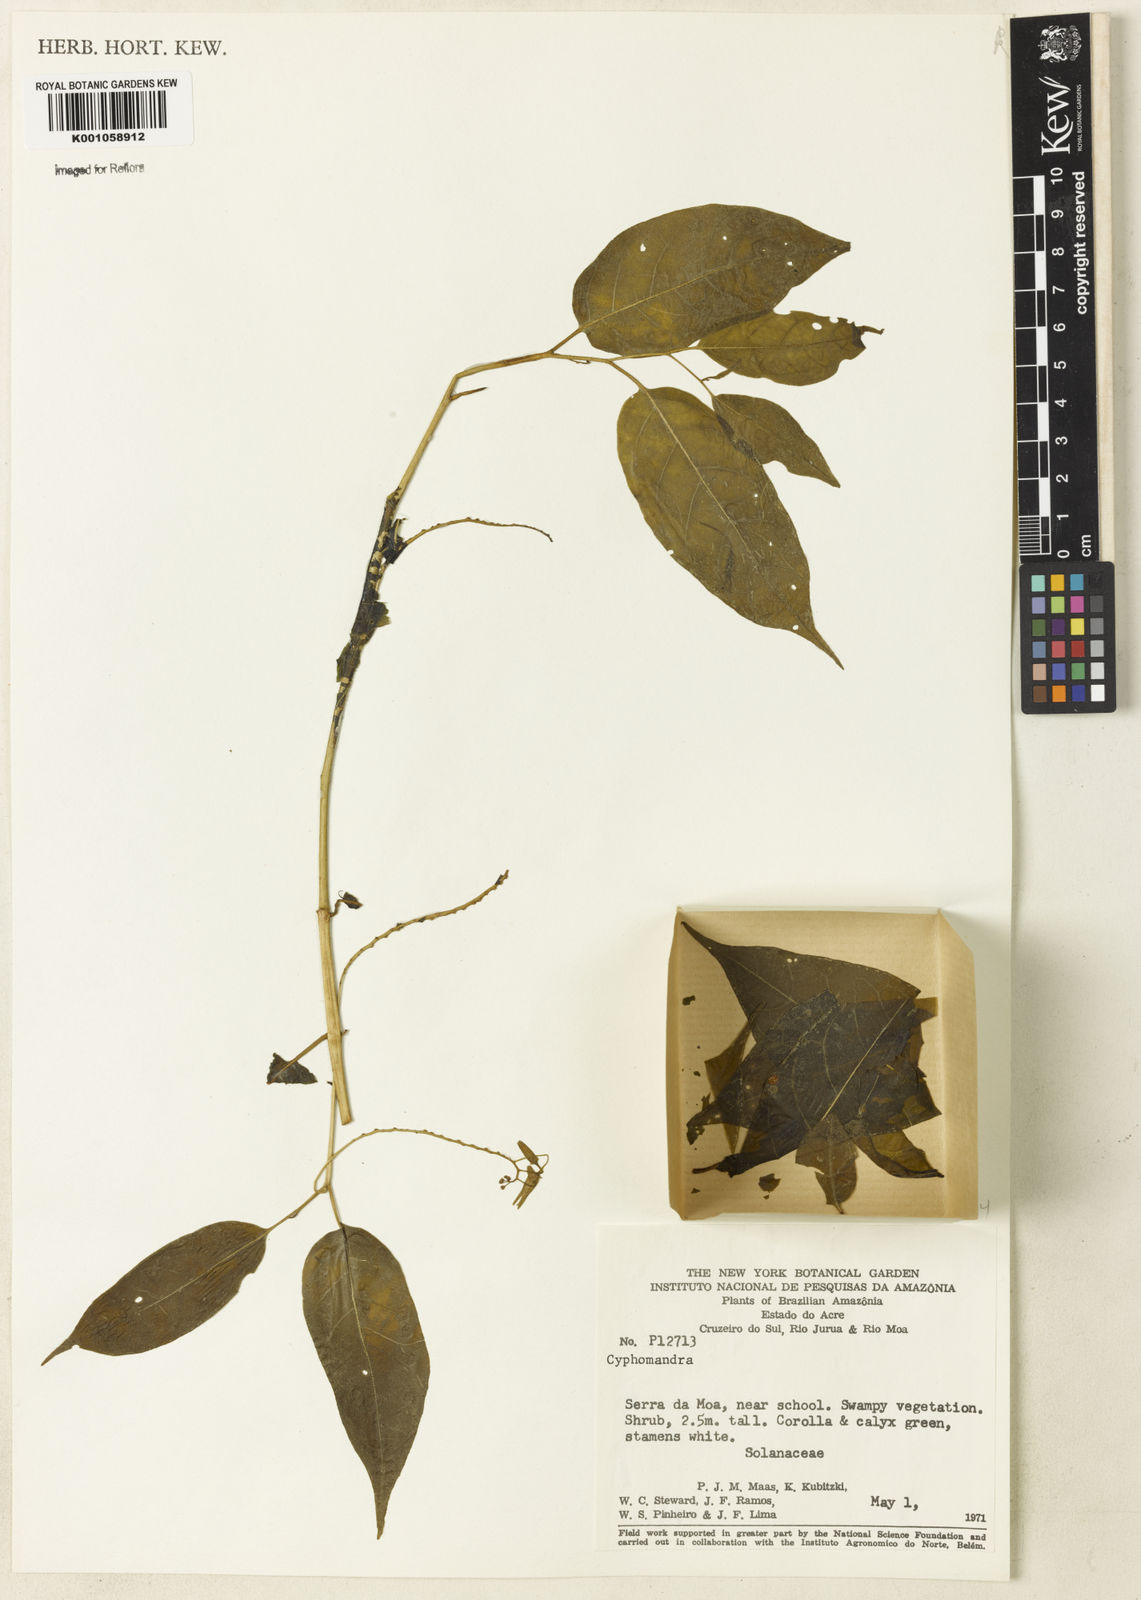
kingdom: Plantae
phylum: Tracheophyta
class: Magnoliopsida
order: Solanales
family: Solanaceae
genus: Solanum
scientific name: Solanum oxyphyllum
